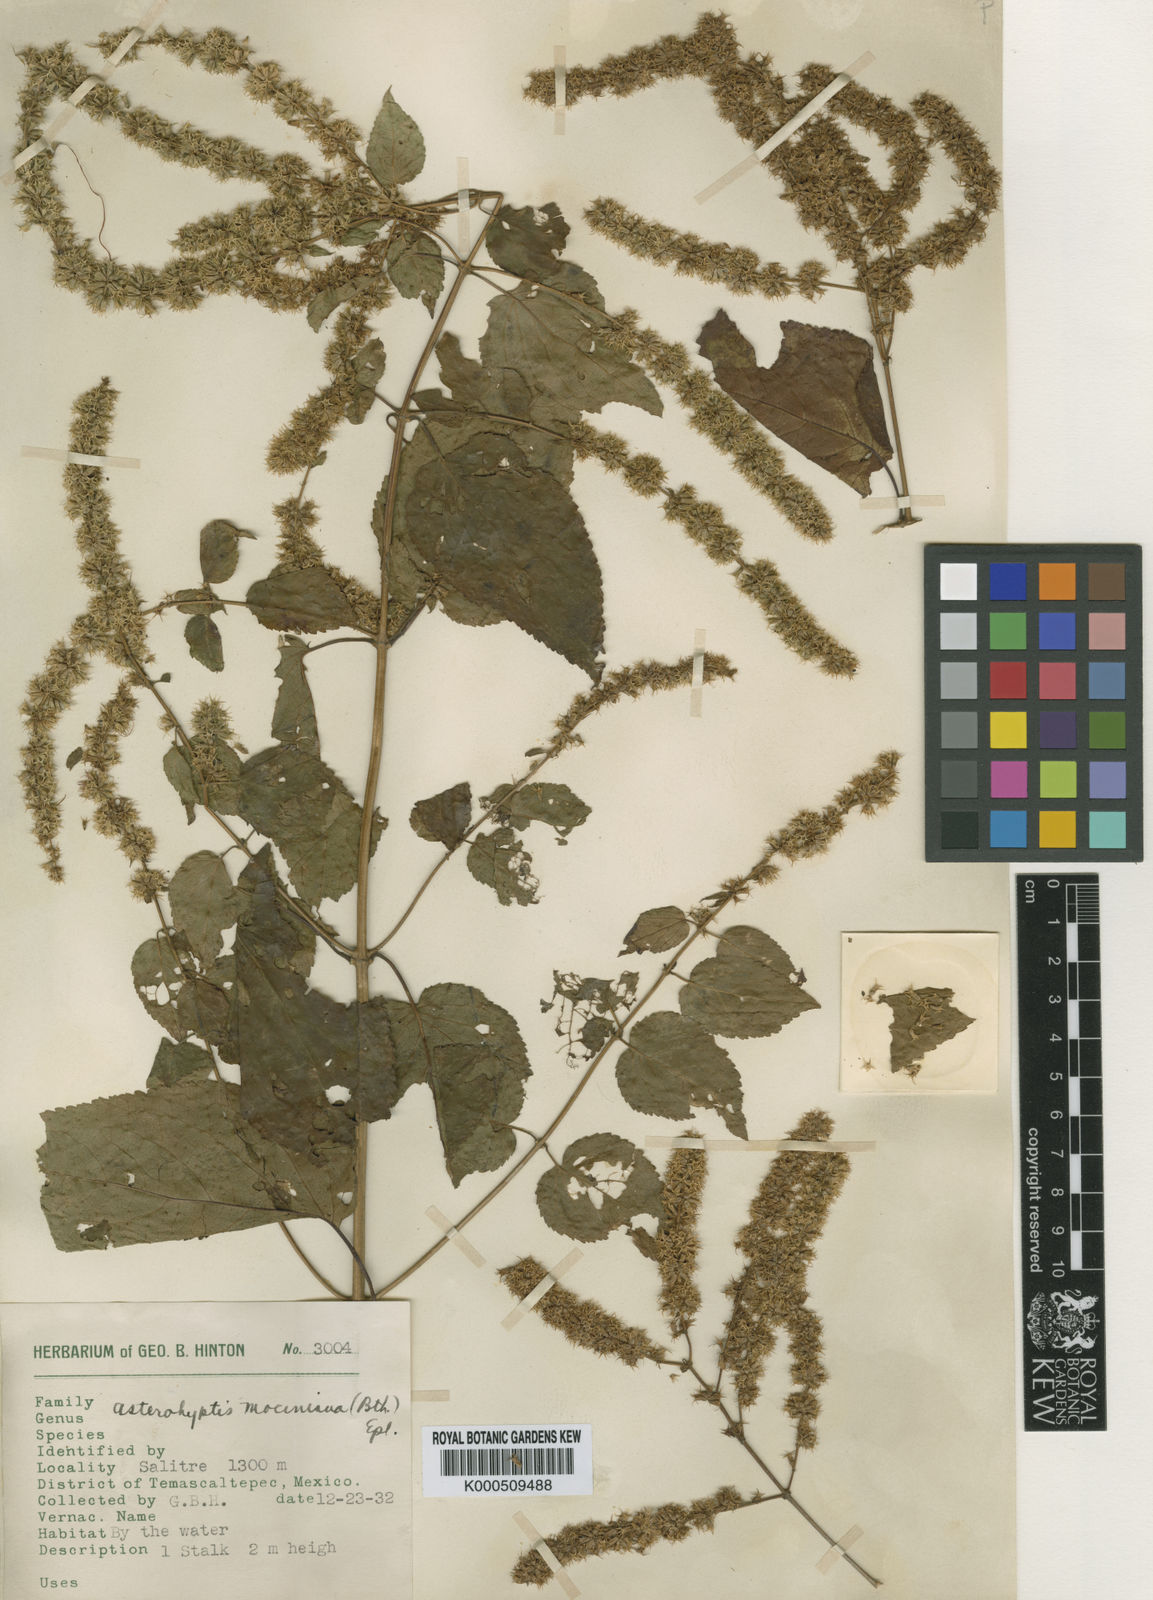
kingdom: Plantae
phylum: Tracheophyta
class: Magnoliopsida
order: Lamiales
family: Lamiaceae
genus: Asterohyptis
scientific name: Asterohyptis
